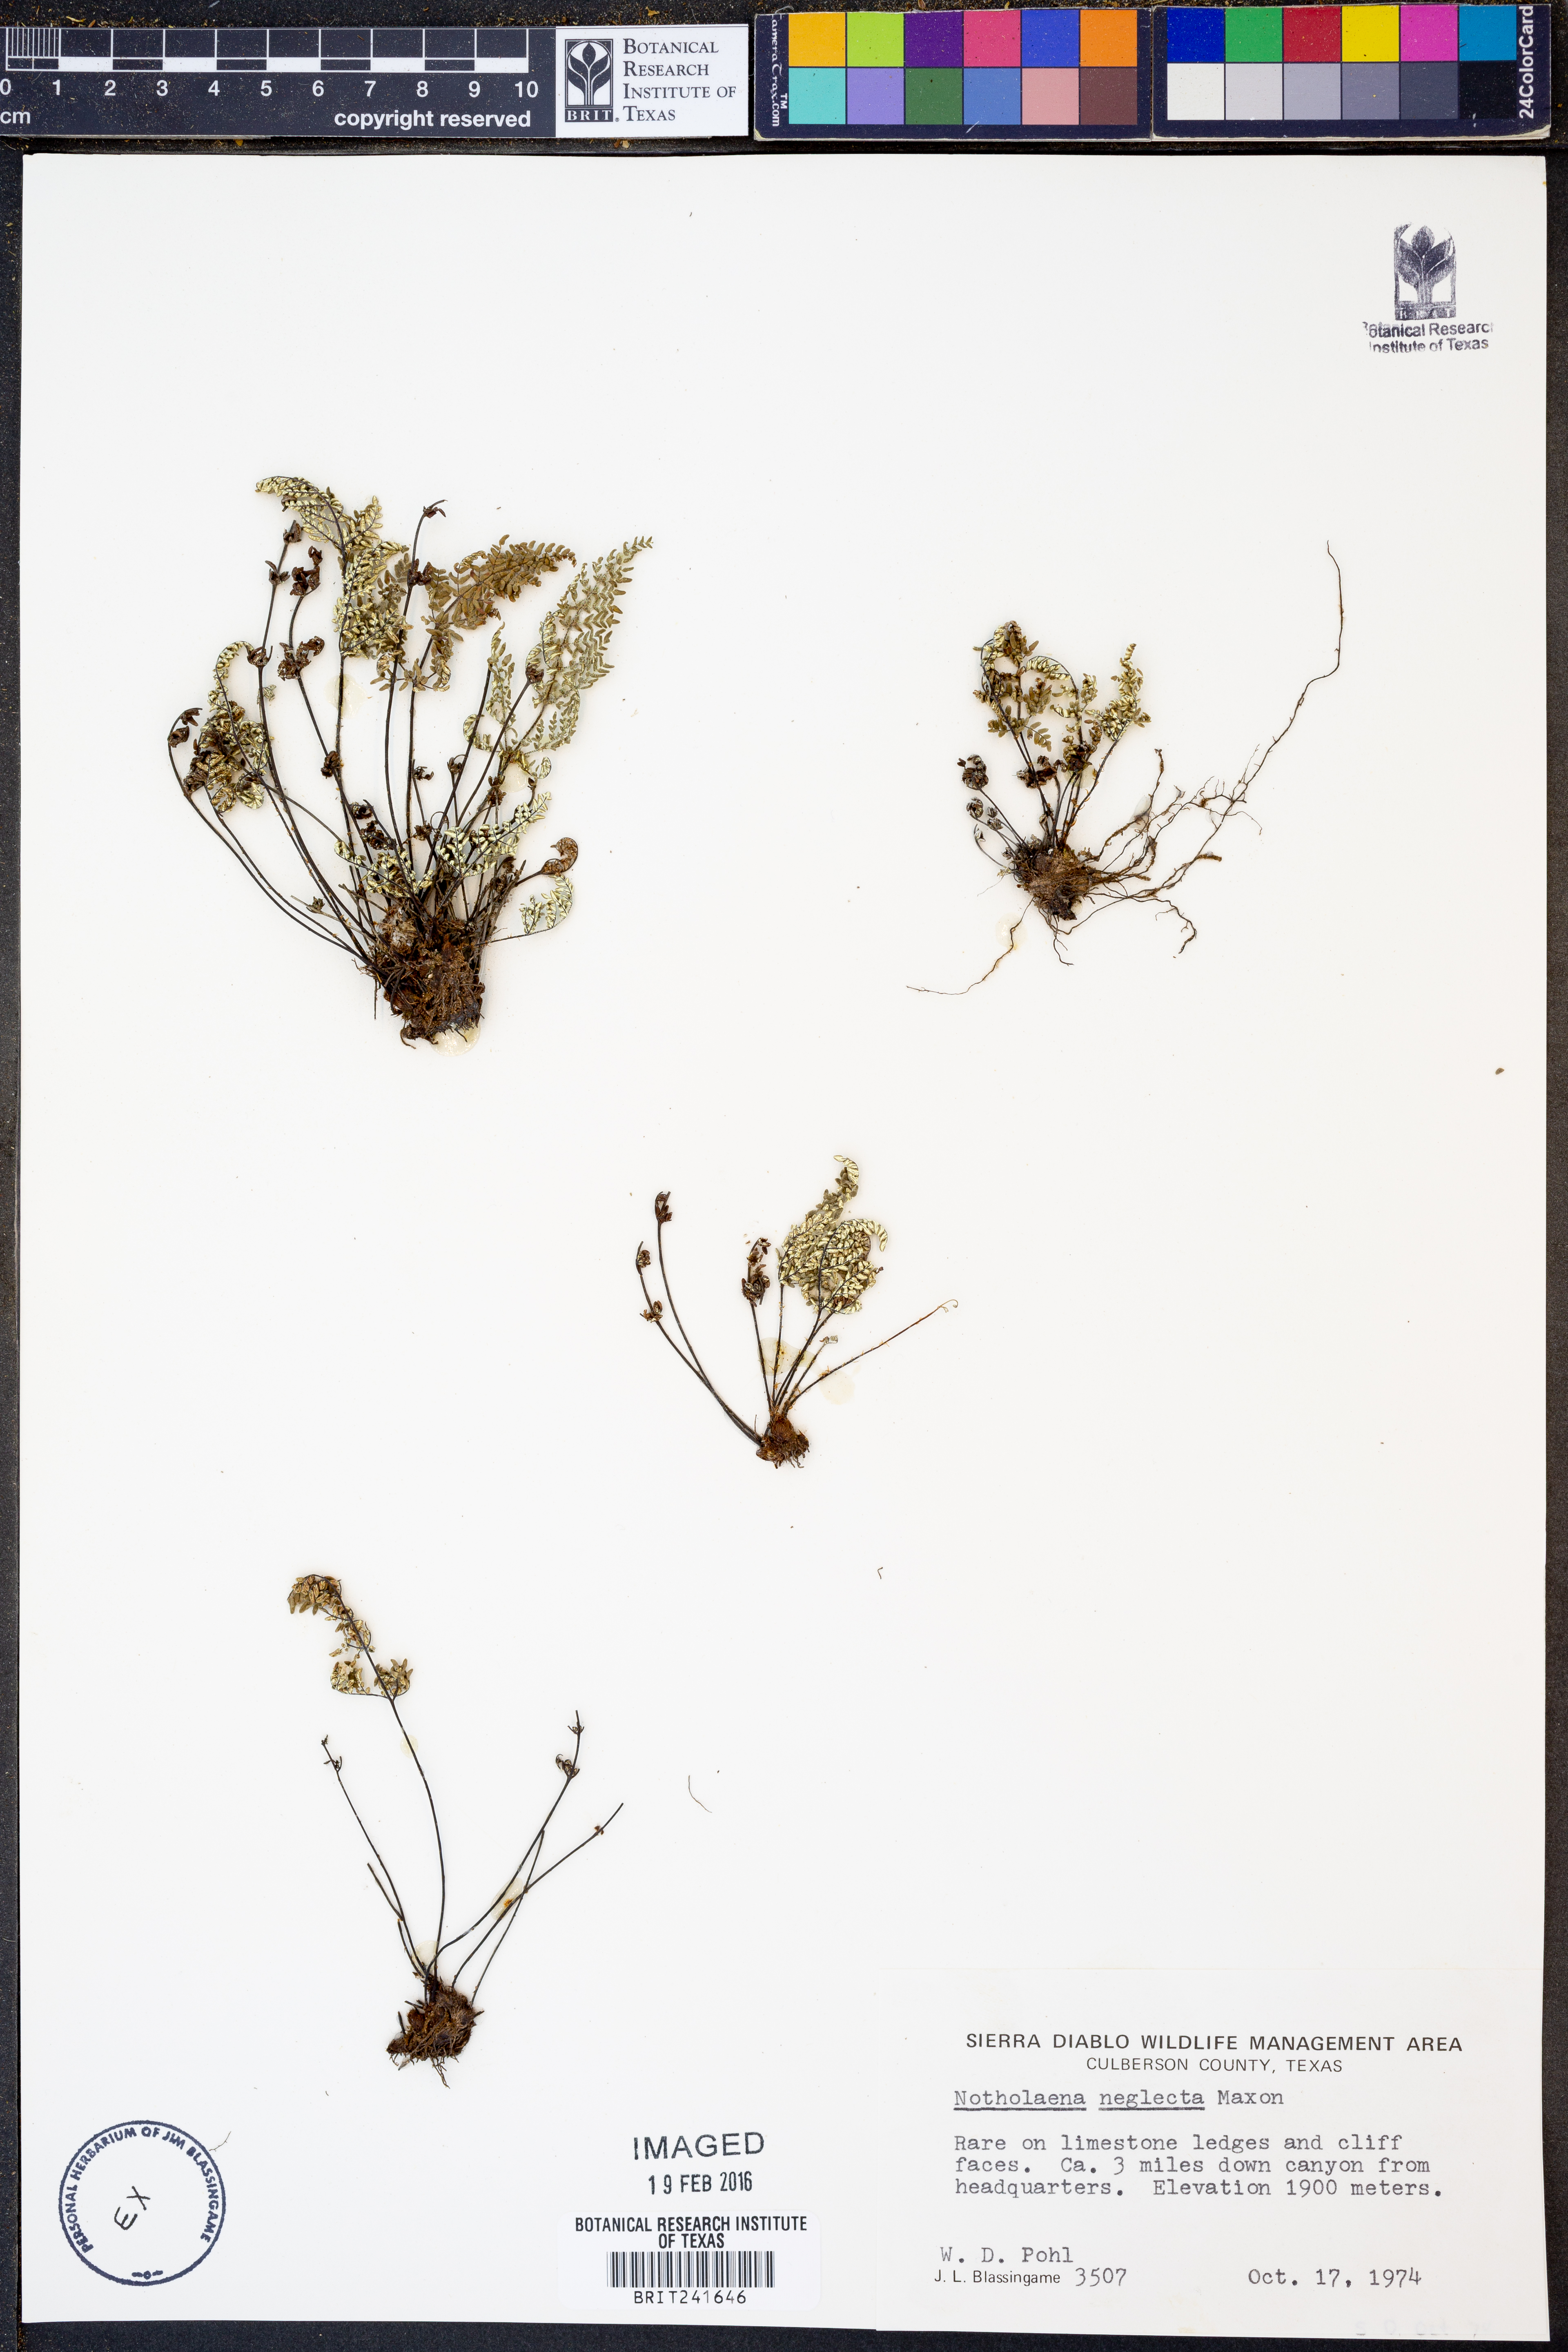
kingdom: Plantae
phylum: Tracheophyta
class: Polypodiopsida
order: Polypodiales
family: Pteridaceae
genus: Notholaena
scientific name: Notholaena neglecta
